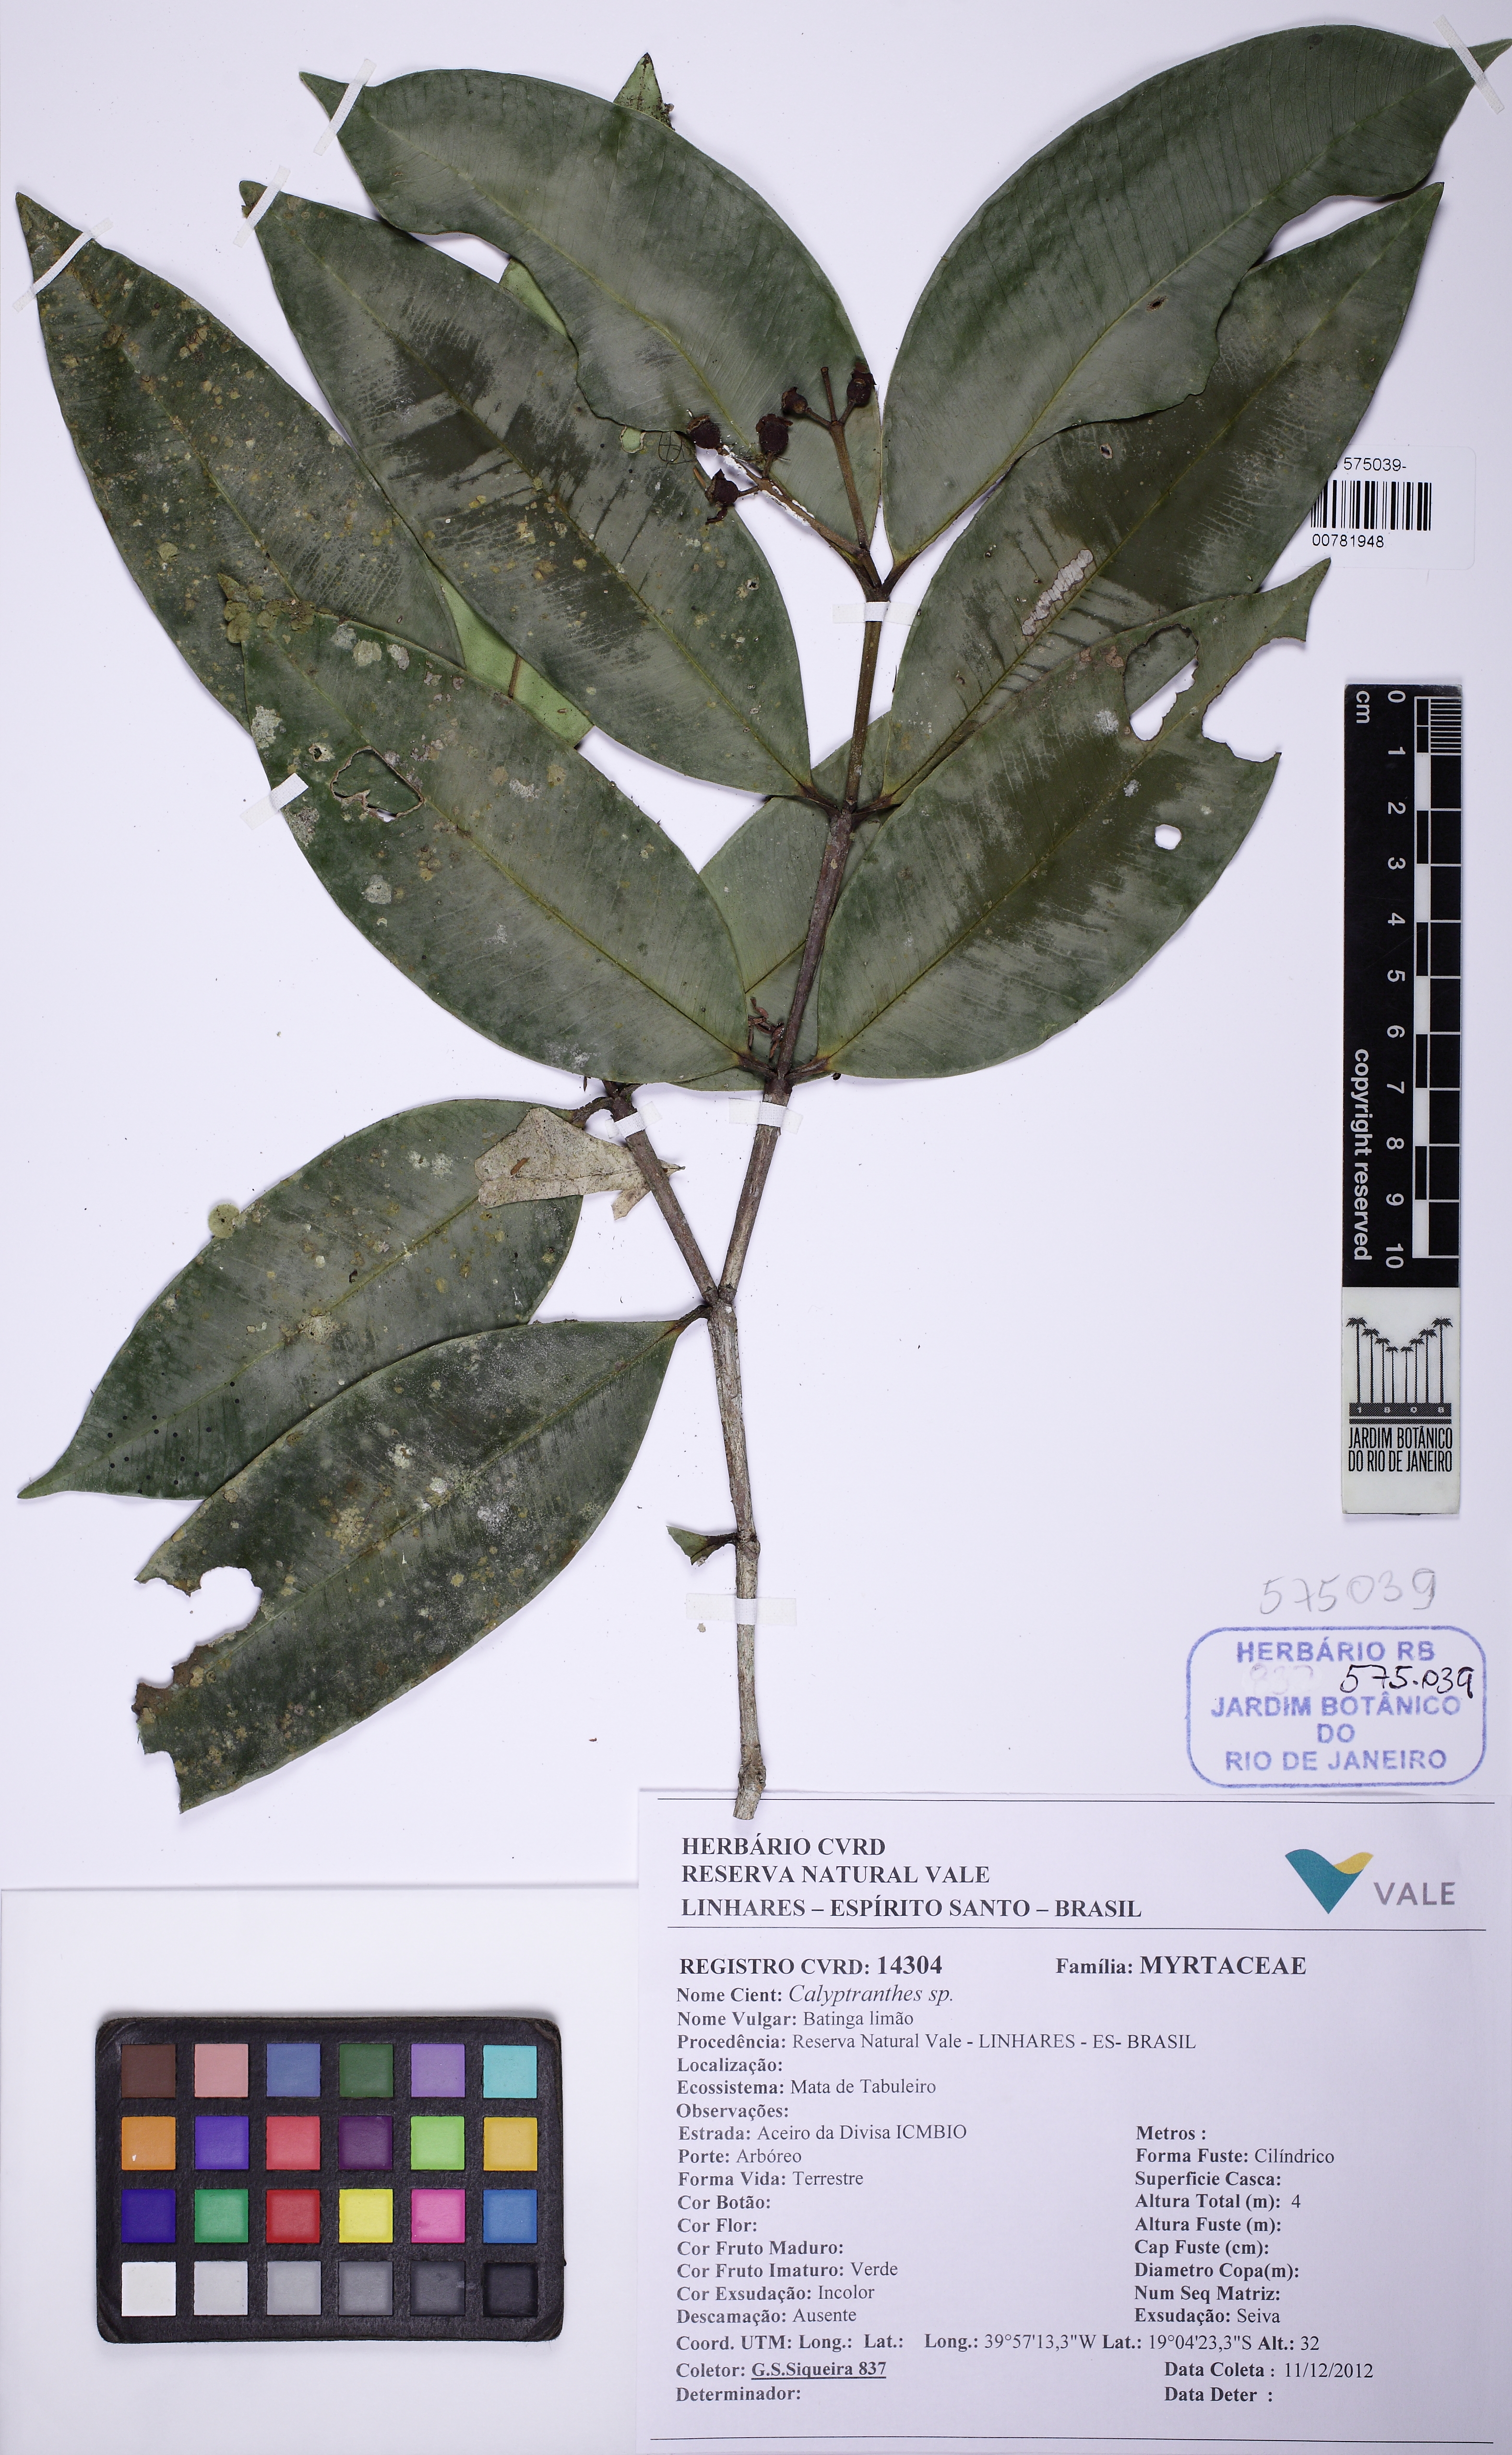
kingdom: Plantae
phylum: Tracheophyta
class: Magnoliopsida
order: Myrtales
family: Myrtaceae
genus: Calyptranthes
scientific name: Calyptranthes
